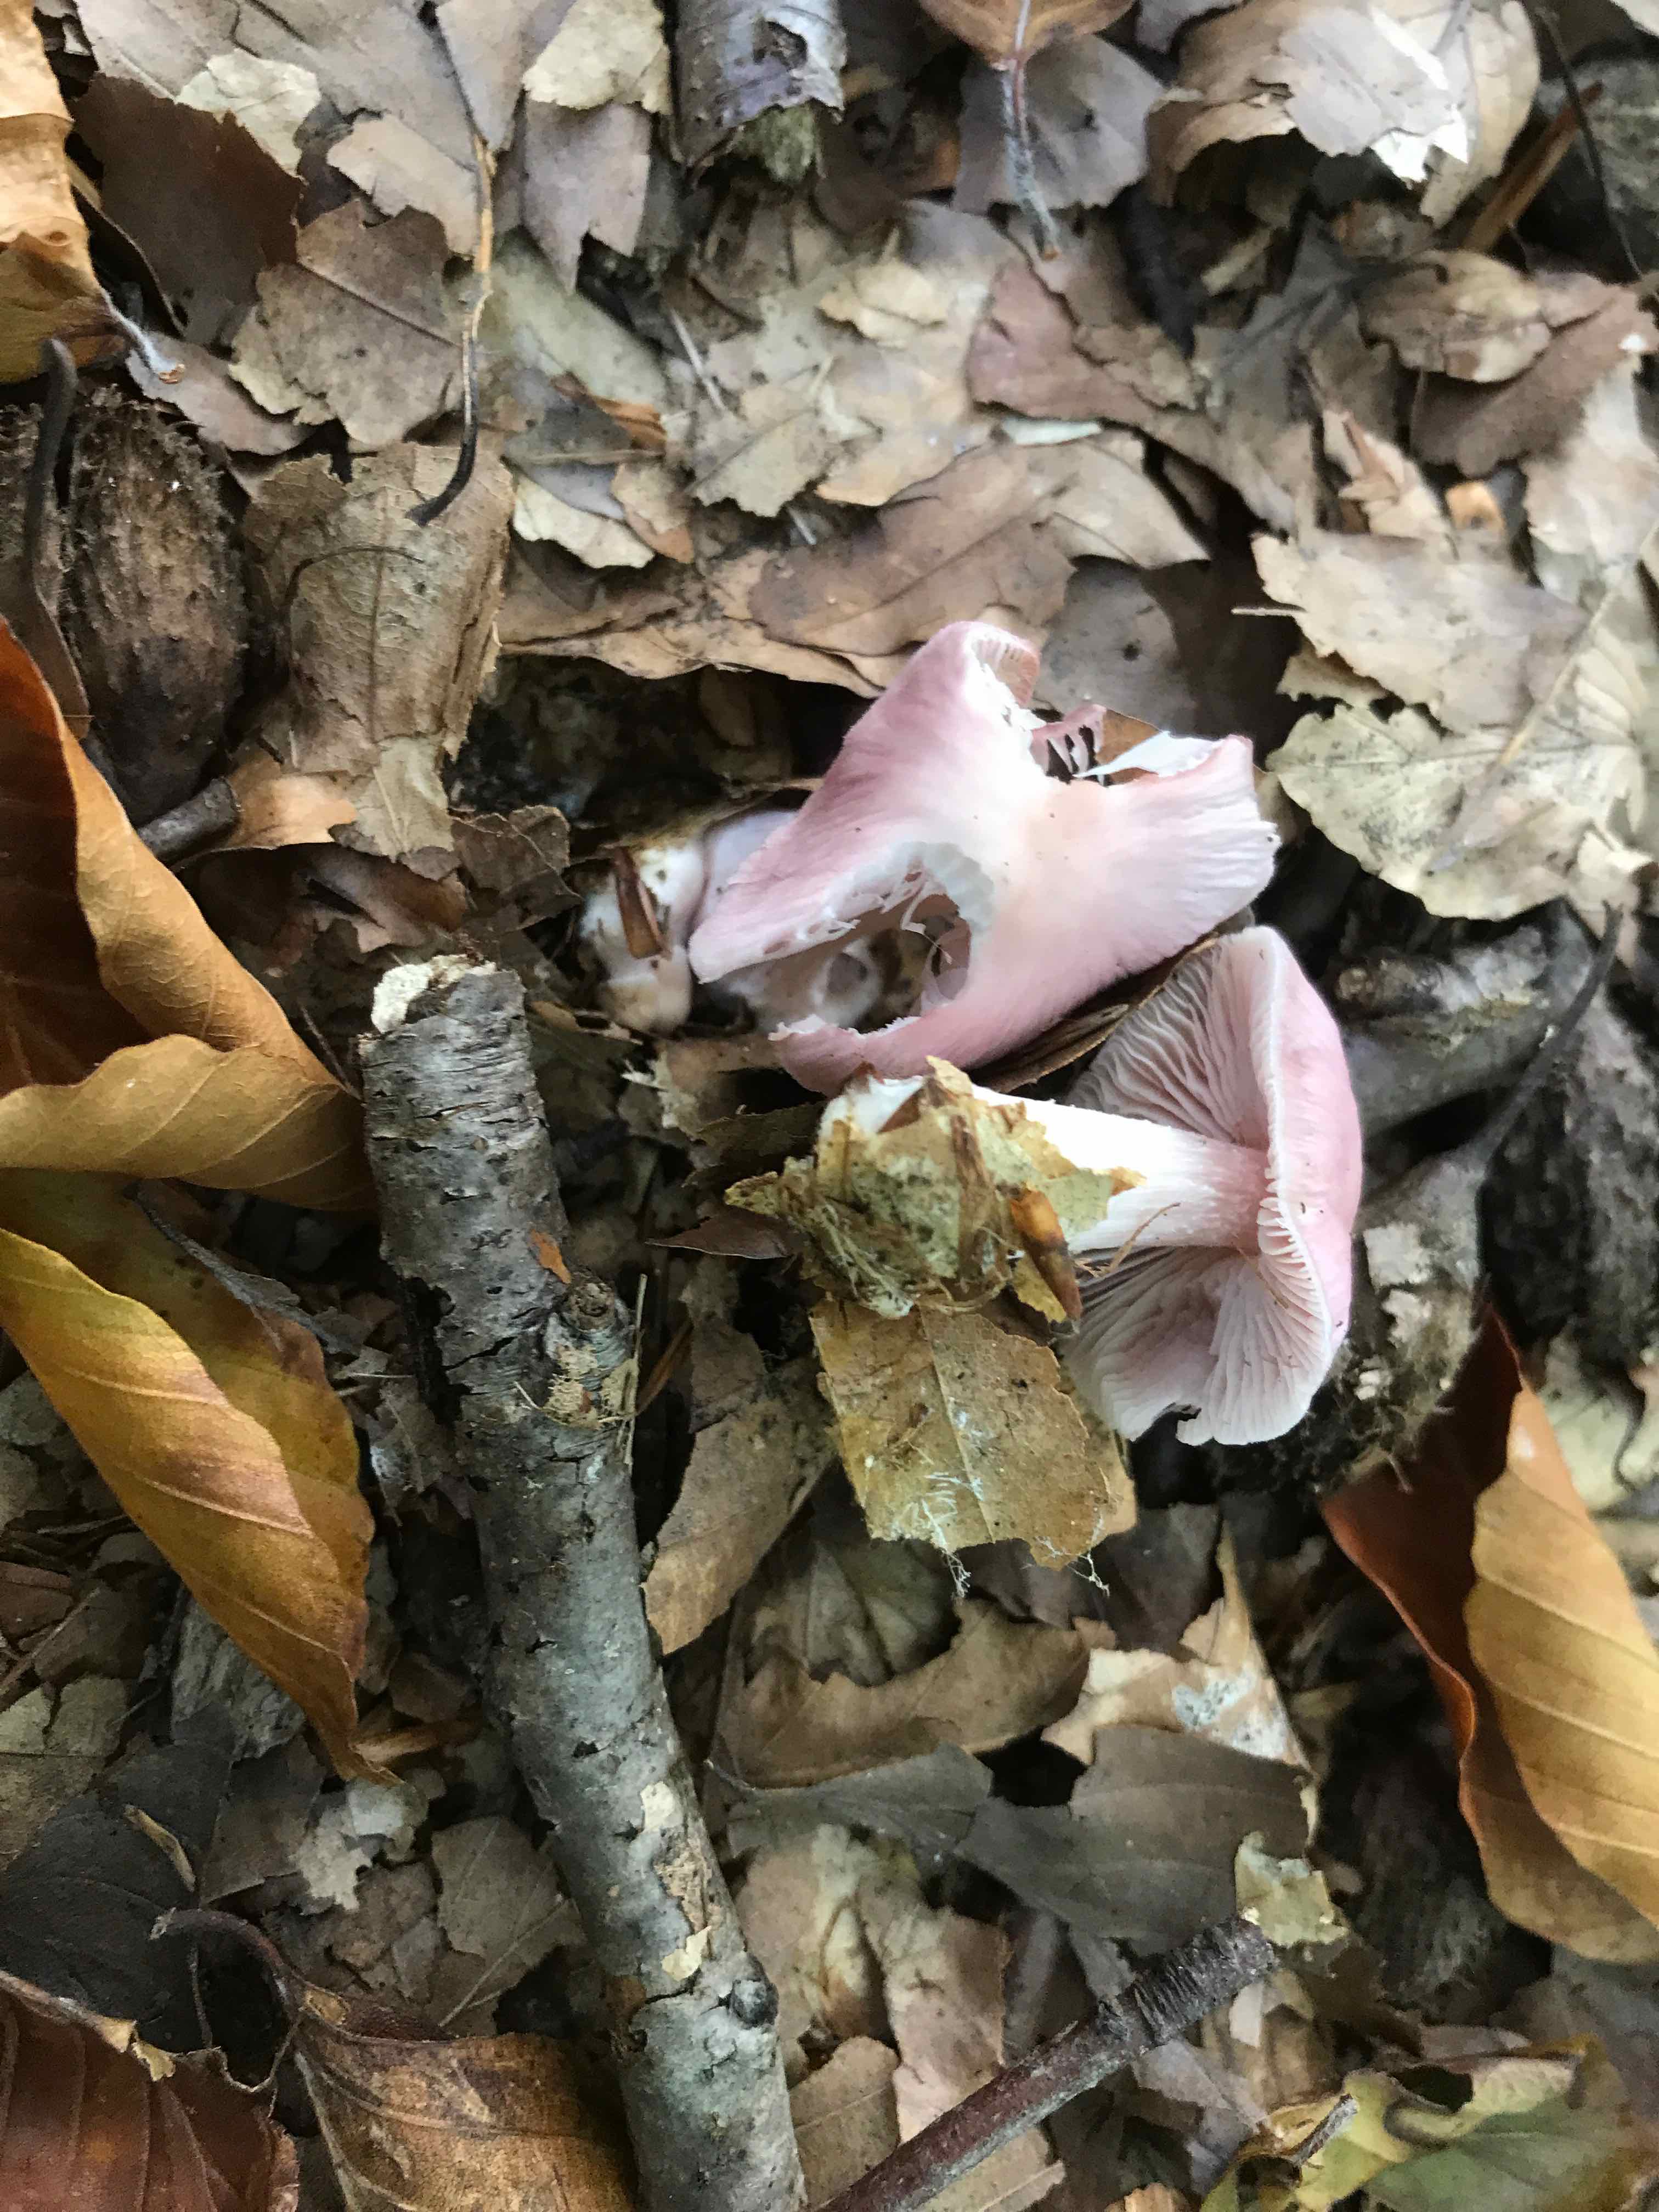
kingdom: Fungi
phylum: Basidiomycota
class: Agaricomycetes
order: Agaricales
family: Mycenaceae
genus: Mycena
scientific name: Mycena rosea
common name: rosa huesvamp
